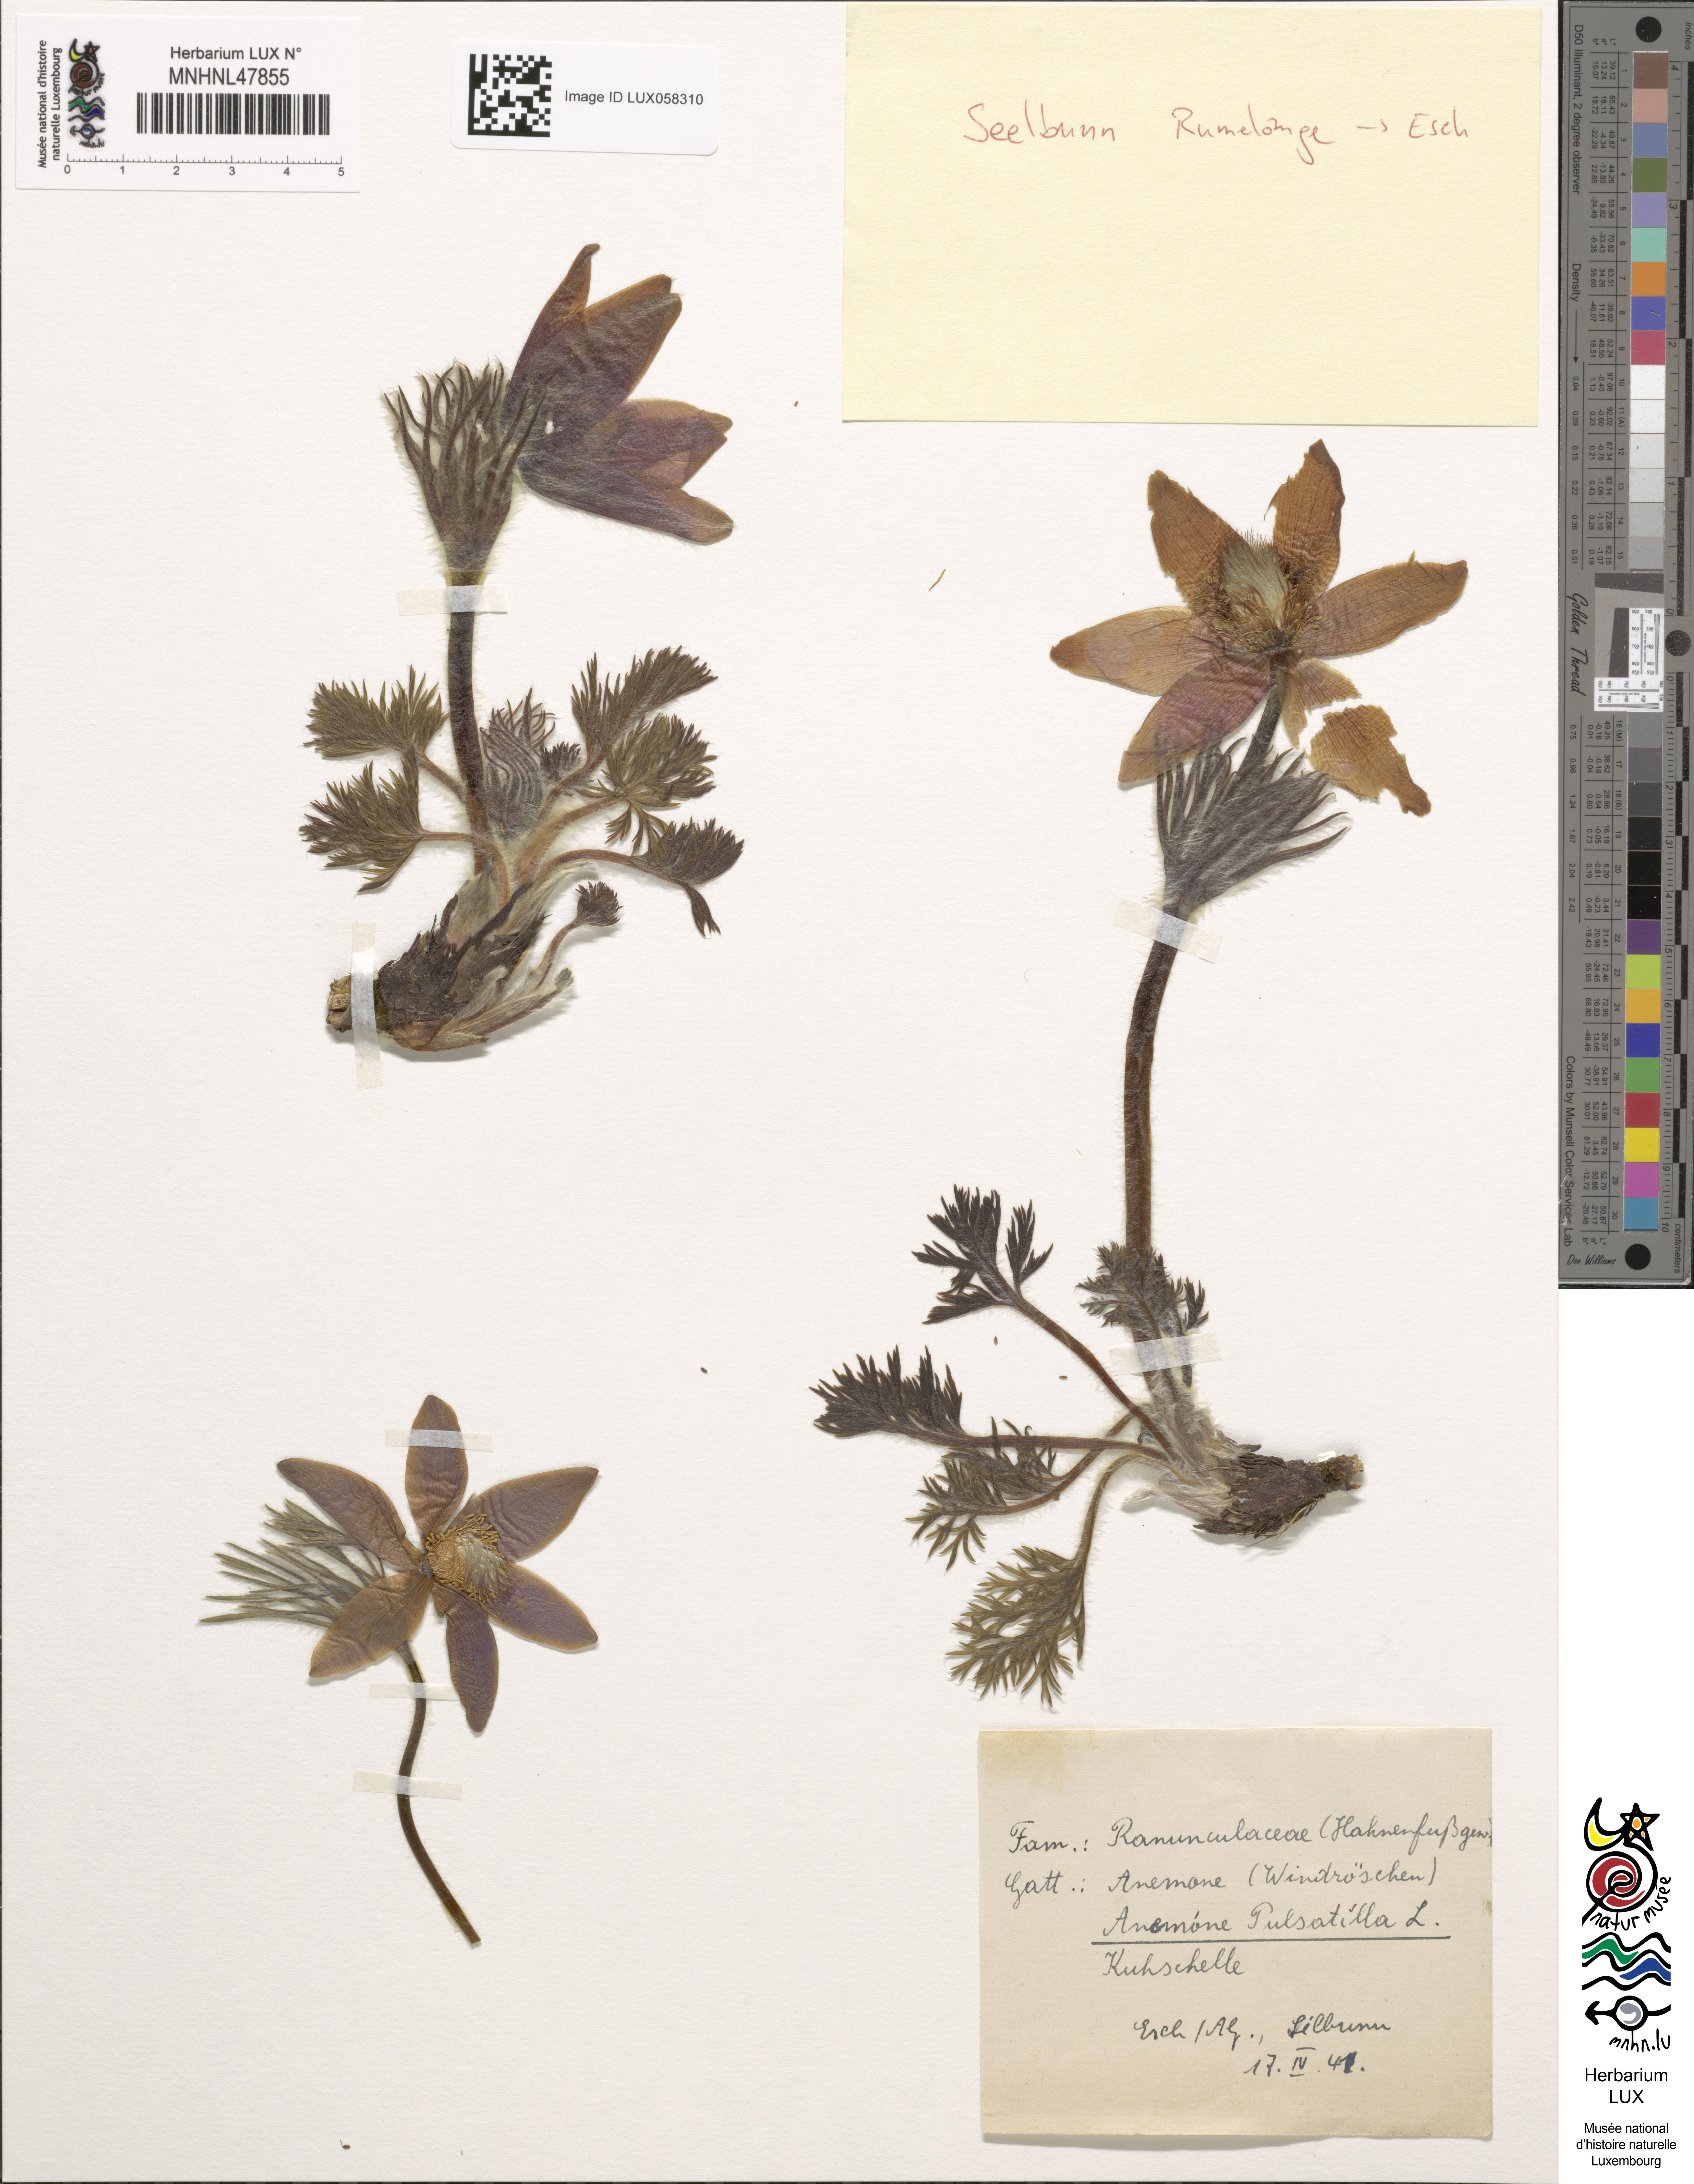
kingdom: Plantae
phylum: Tracheophyta
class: Magnoliopsida
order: Ranunculales
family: Ranunculaceae
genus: Pulsatilla
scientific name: Pulsatilla vulgaris
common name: Pasqueflower
